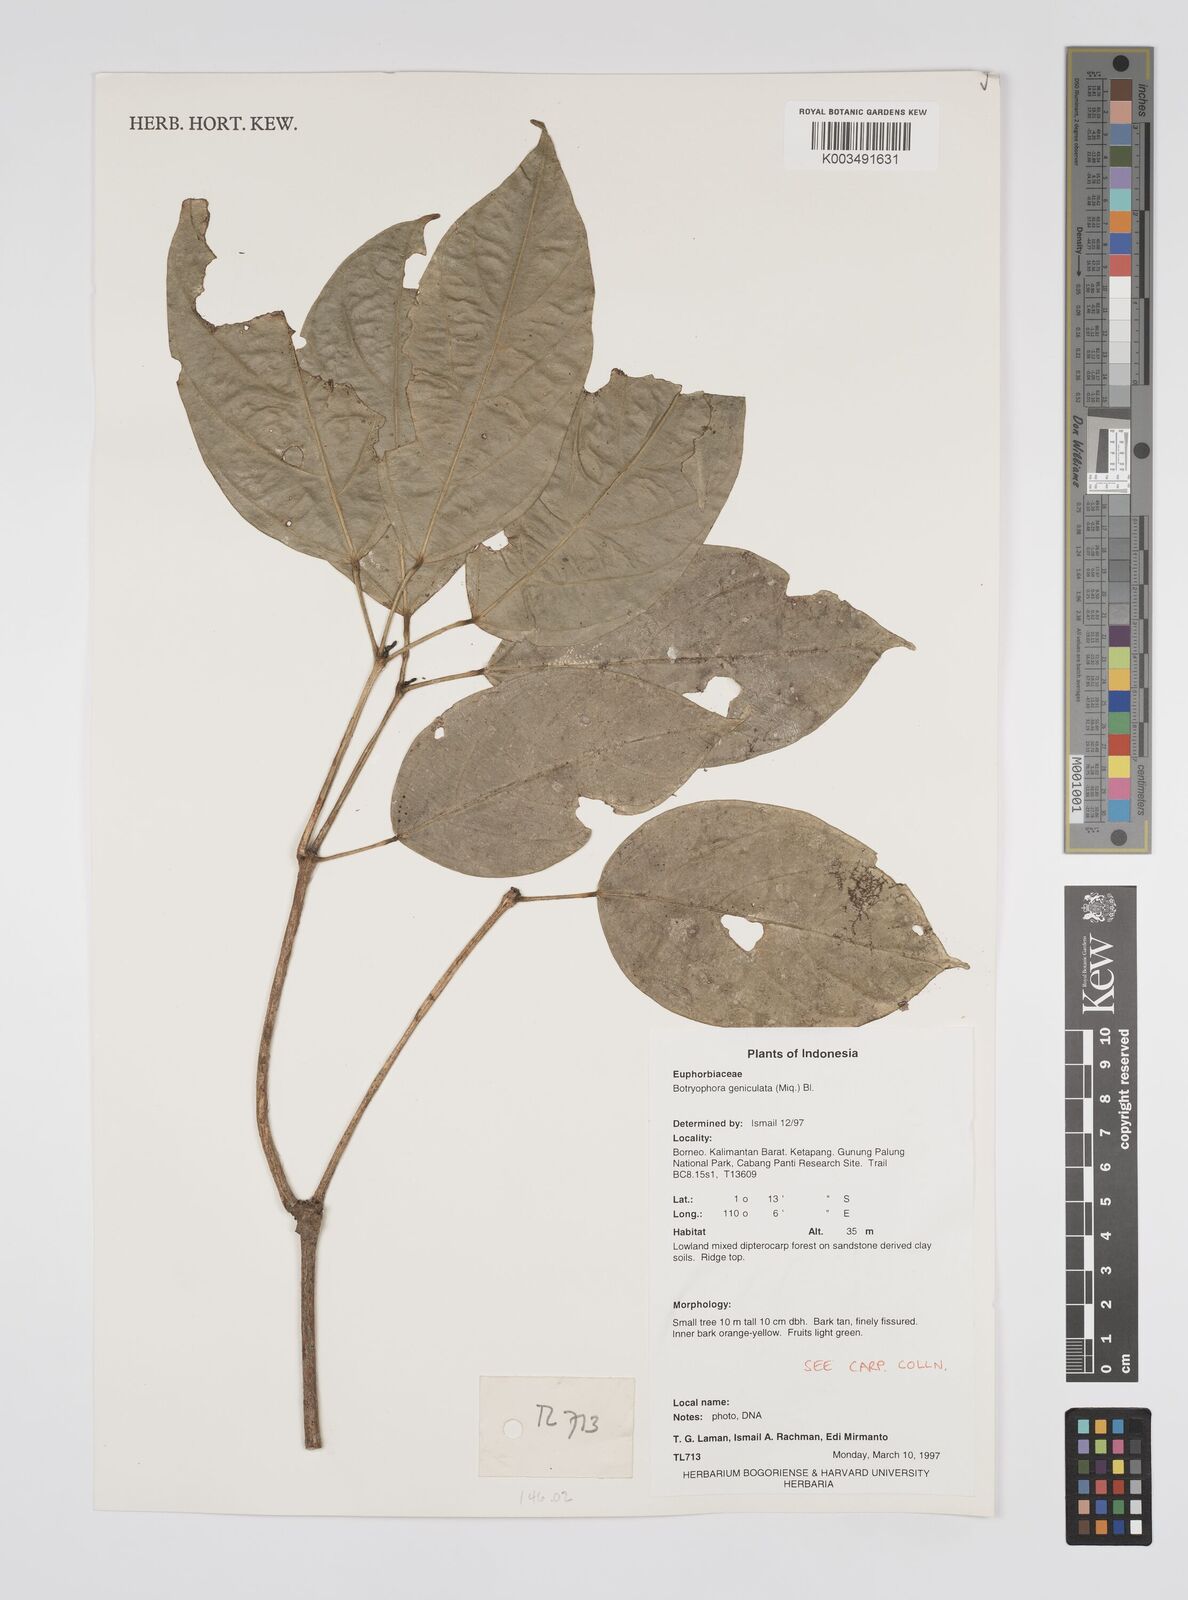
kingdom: Plantae
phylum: Tracheophyta
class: Magnoliopsida
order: Malpighiales
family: Euphorbiaceae
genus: Botryophora
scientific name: Botryophora geniculata
